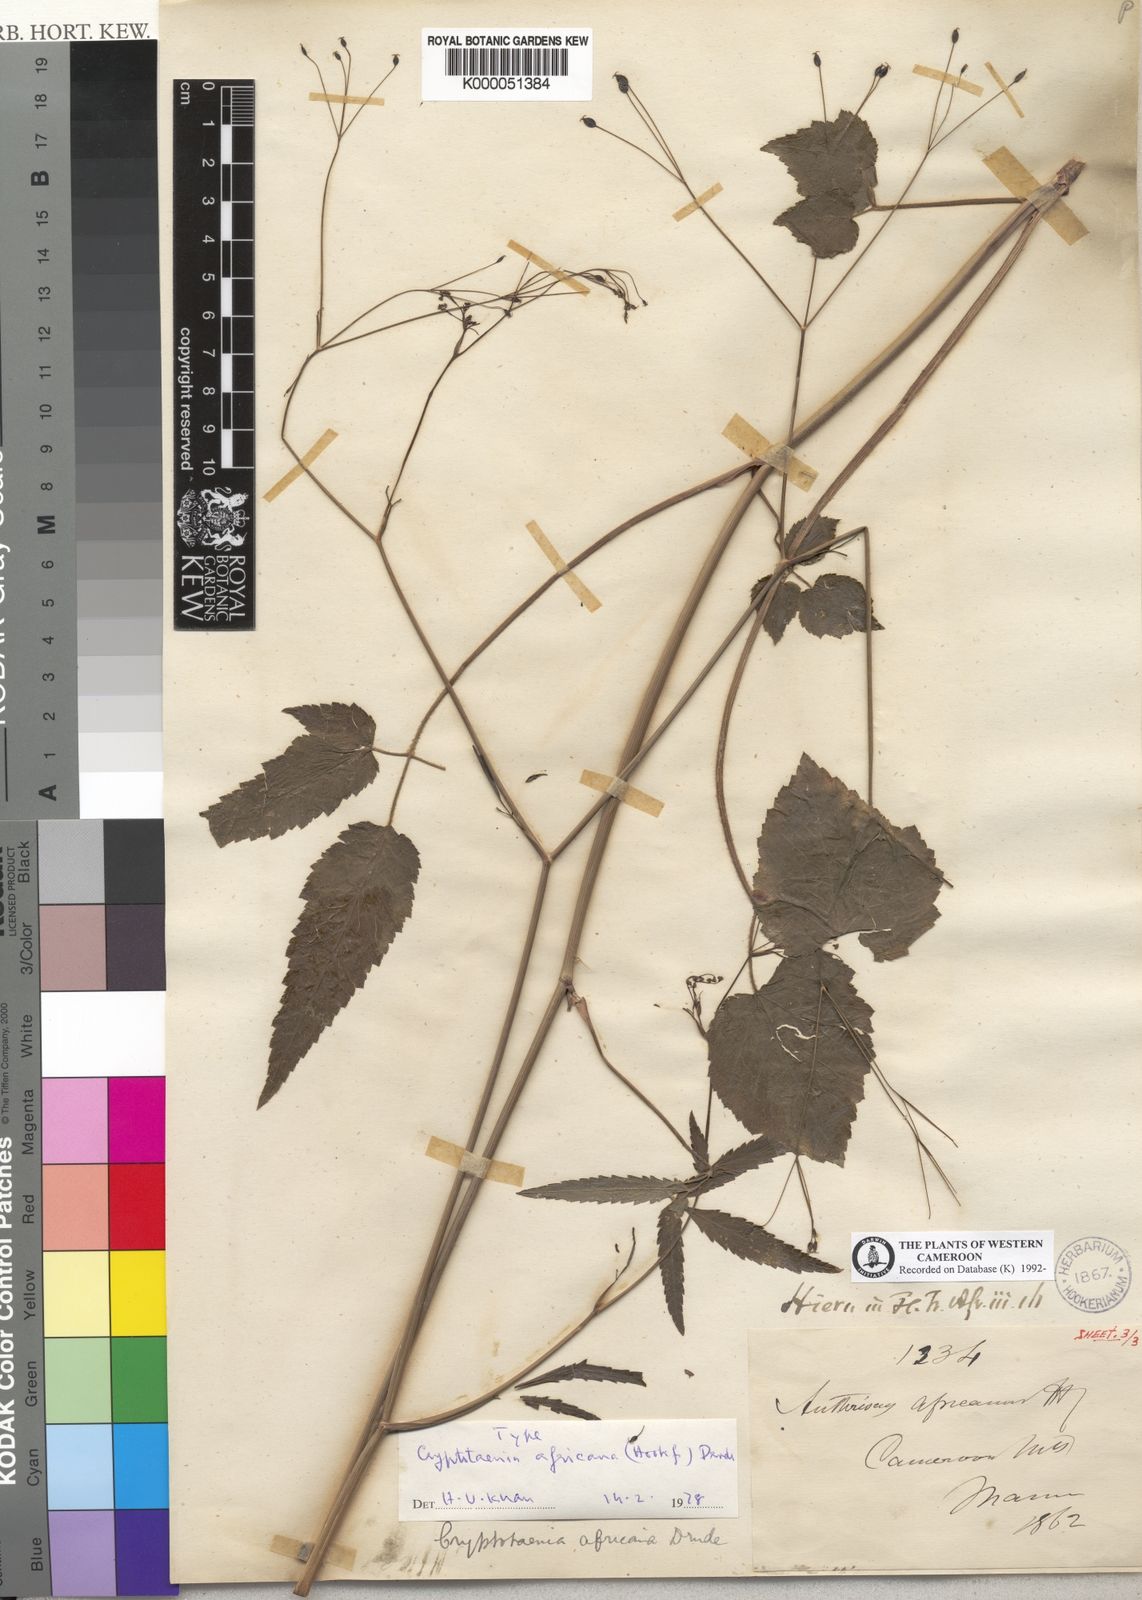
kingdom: Plantae
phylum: Tracheophyta
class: Magnoliopsida
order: Apiales
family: Apiaceae
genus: Cryptotaenia
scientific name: Cryptotaenia africana
